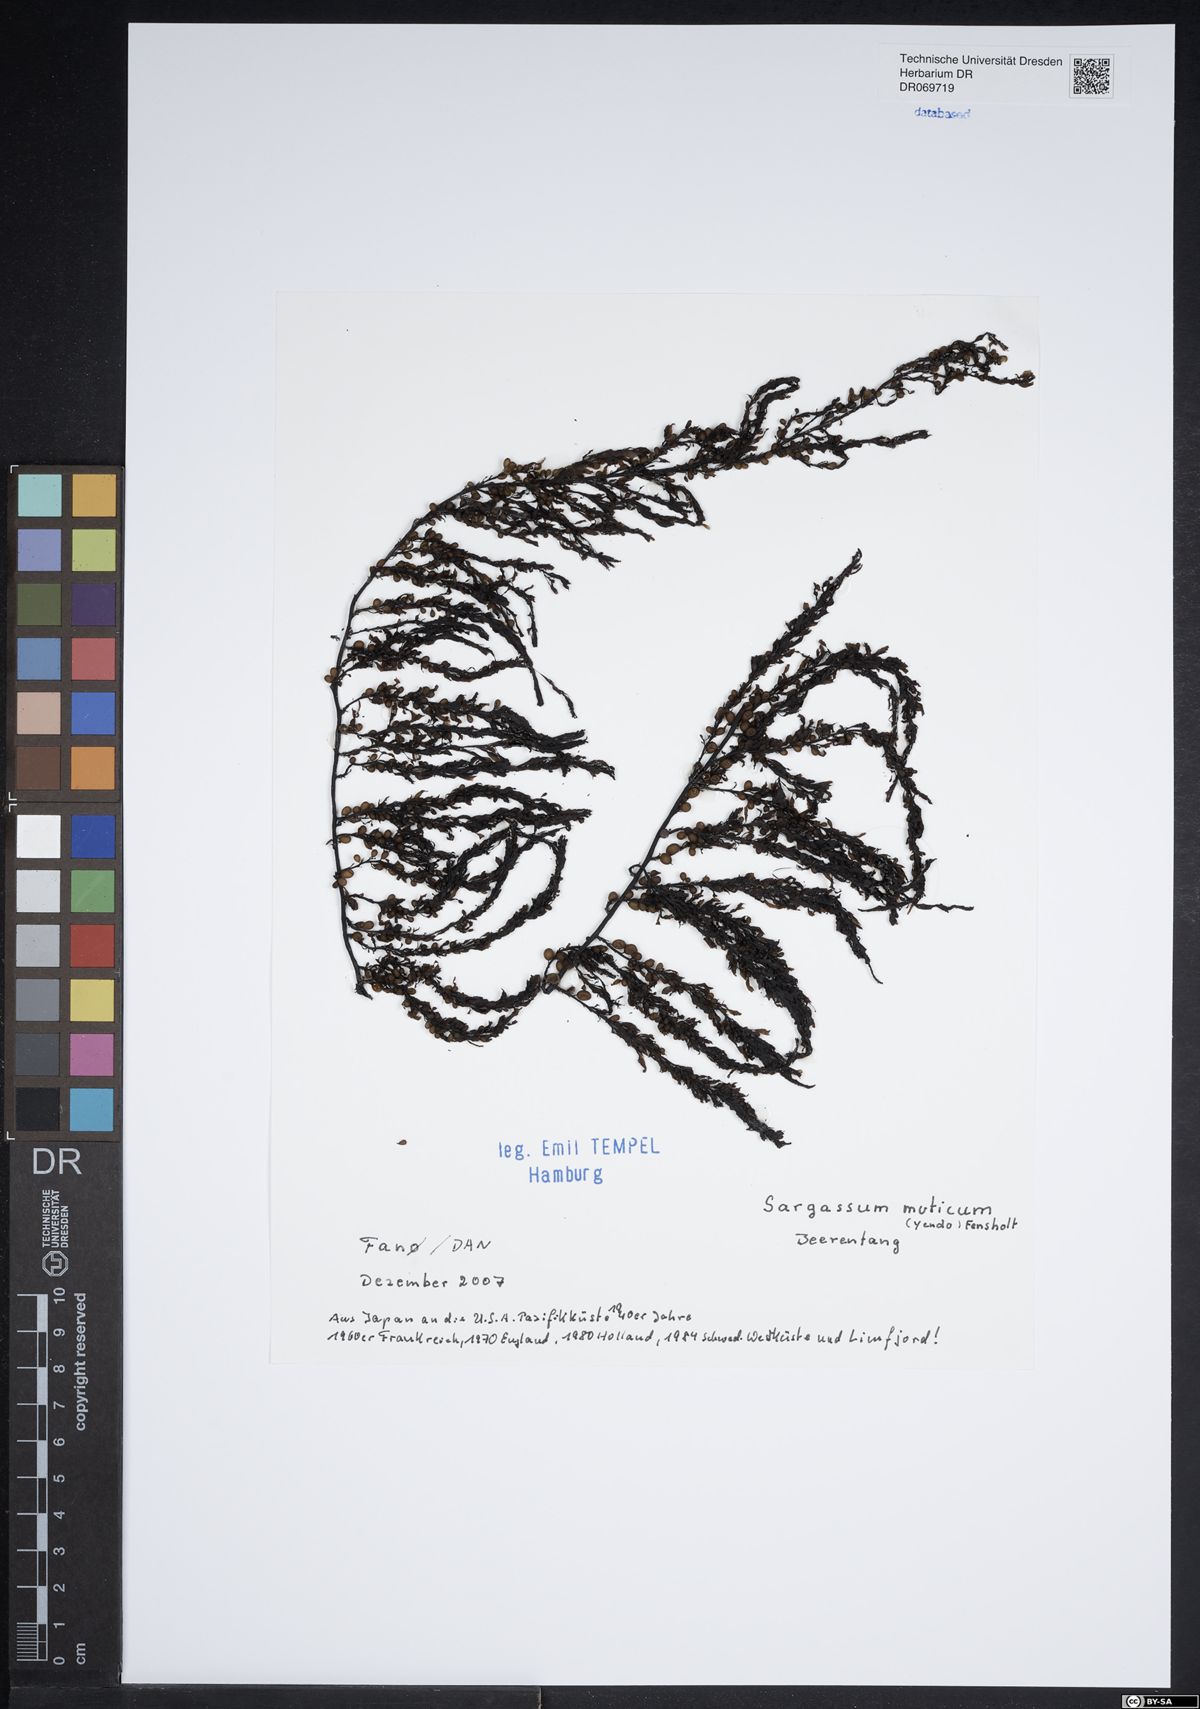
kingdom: Chromista
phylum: Ochrophyta
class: Phaeophyceae
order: Fucales
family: Sargassaceae
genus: Sargassum
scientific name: Sargassum muticum
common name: Japweed
